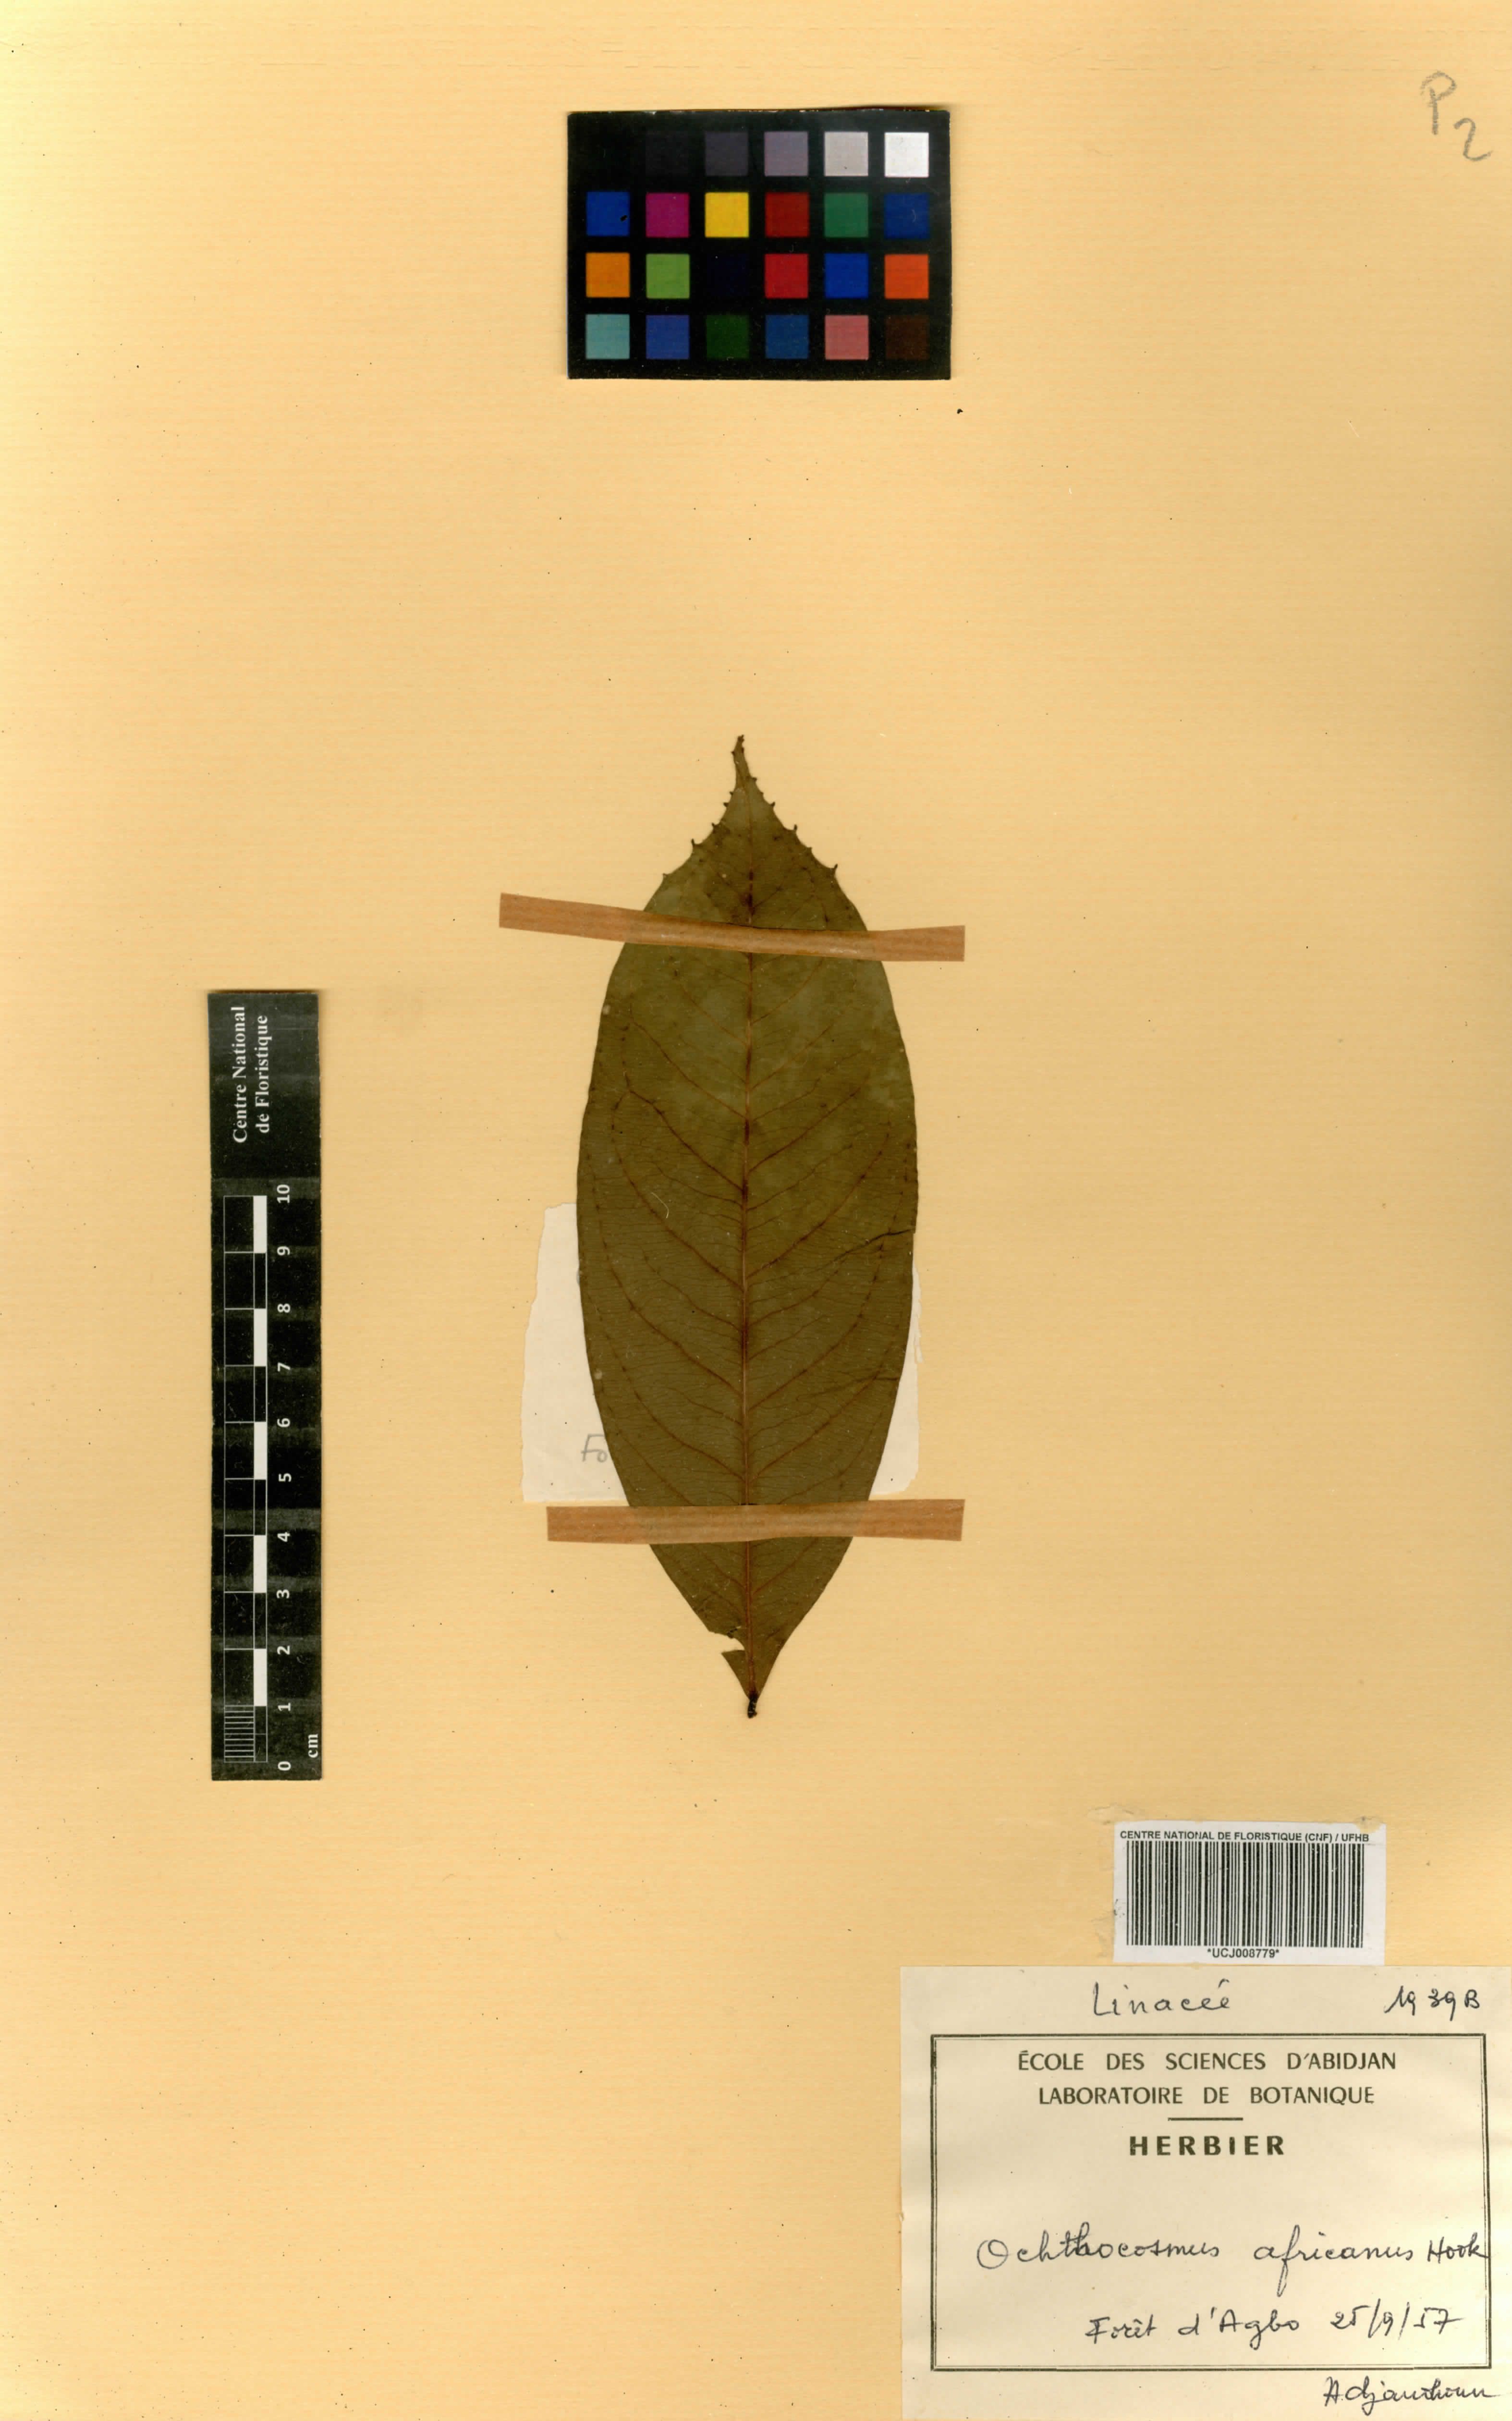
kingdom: Plantae
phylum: Tracheophyta
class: Magnoliopsida
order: Malpighiales
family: Ixonanthaceae
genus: Phyllocosmus
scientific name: Phyllocosmus africanus
